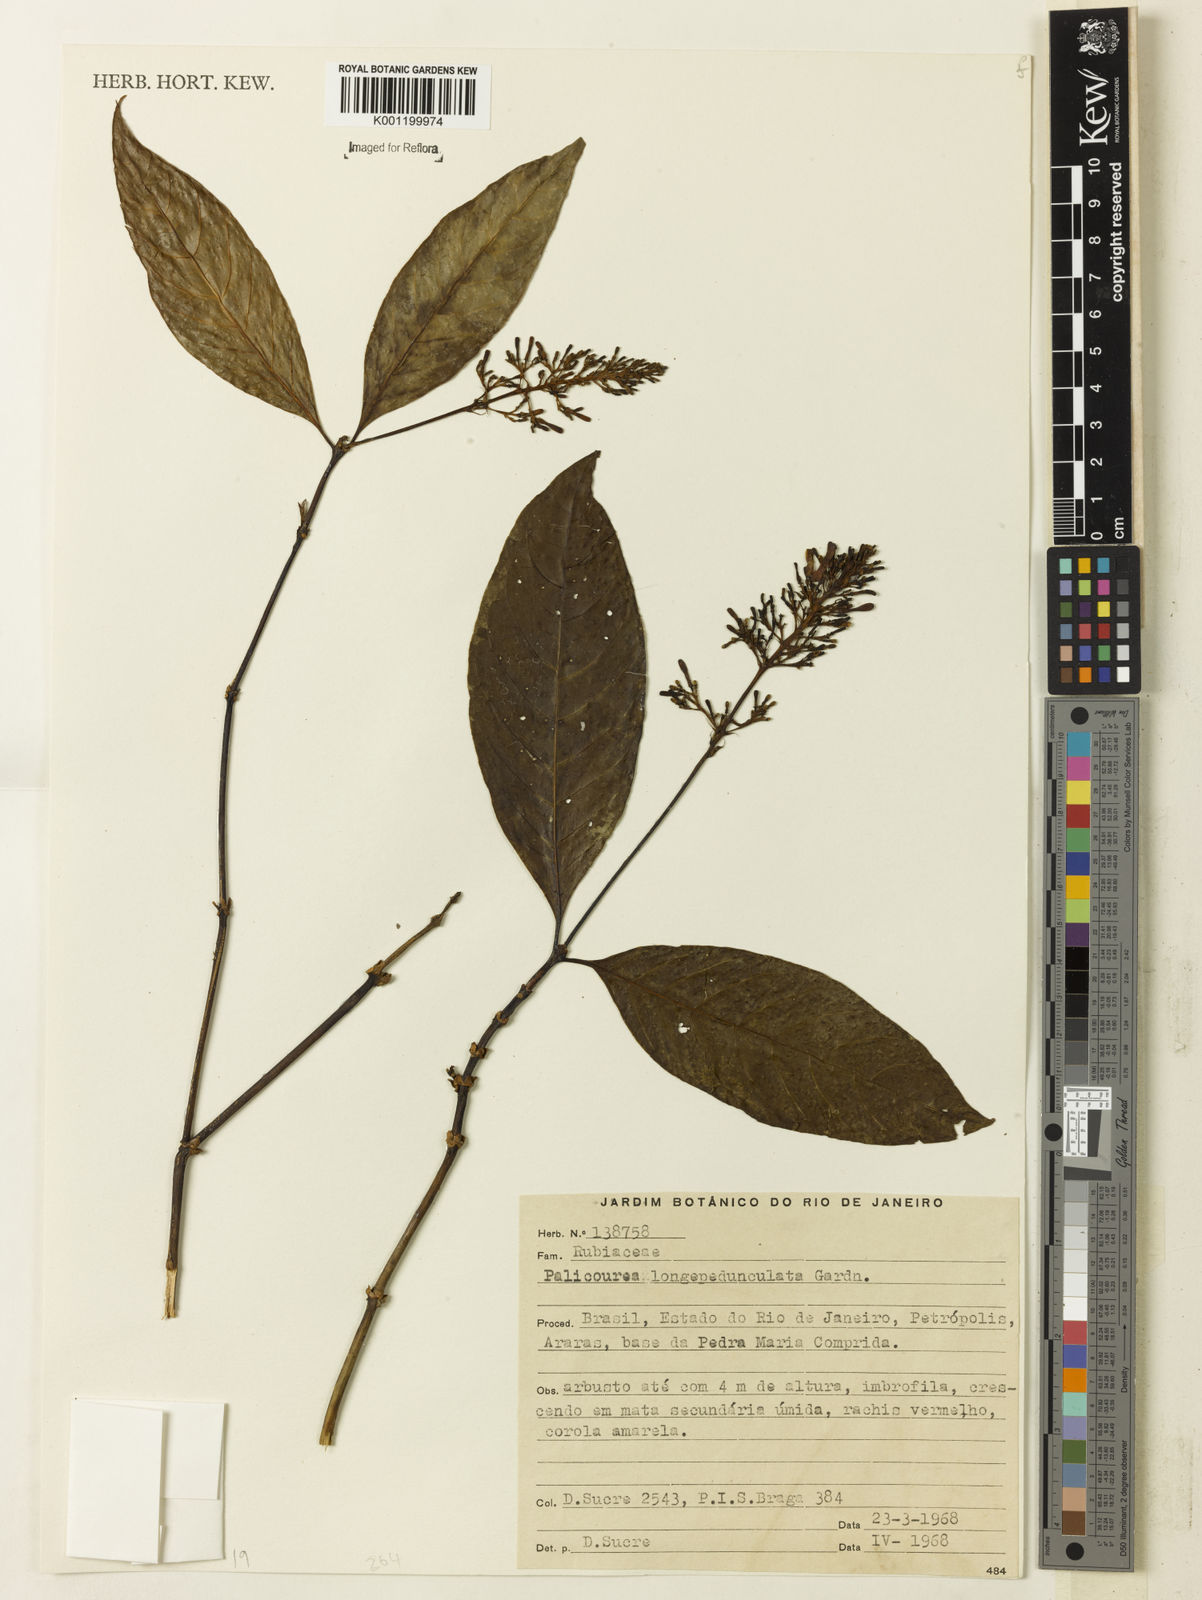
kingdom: Plantae
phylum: Tracheophyta
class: Magnoliopsida
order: Gentianales
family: Rubiaceae
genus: Palicourea
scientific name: Palicourea longipedunculata
